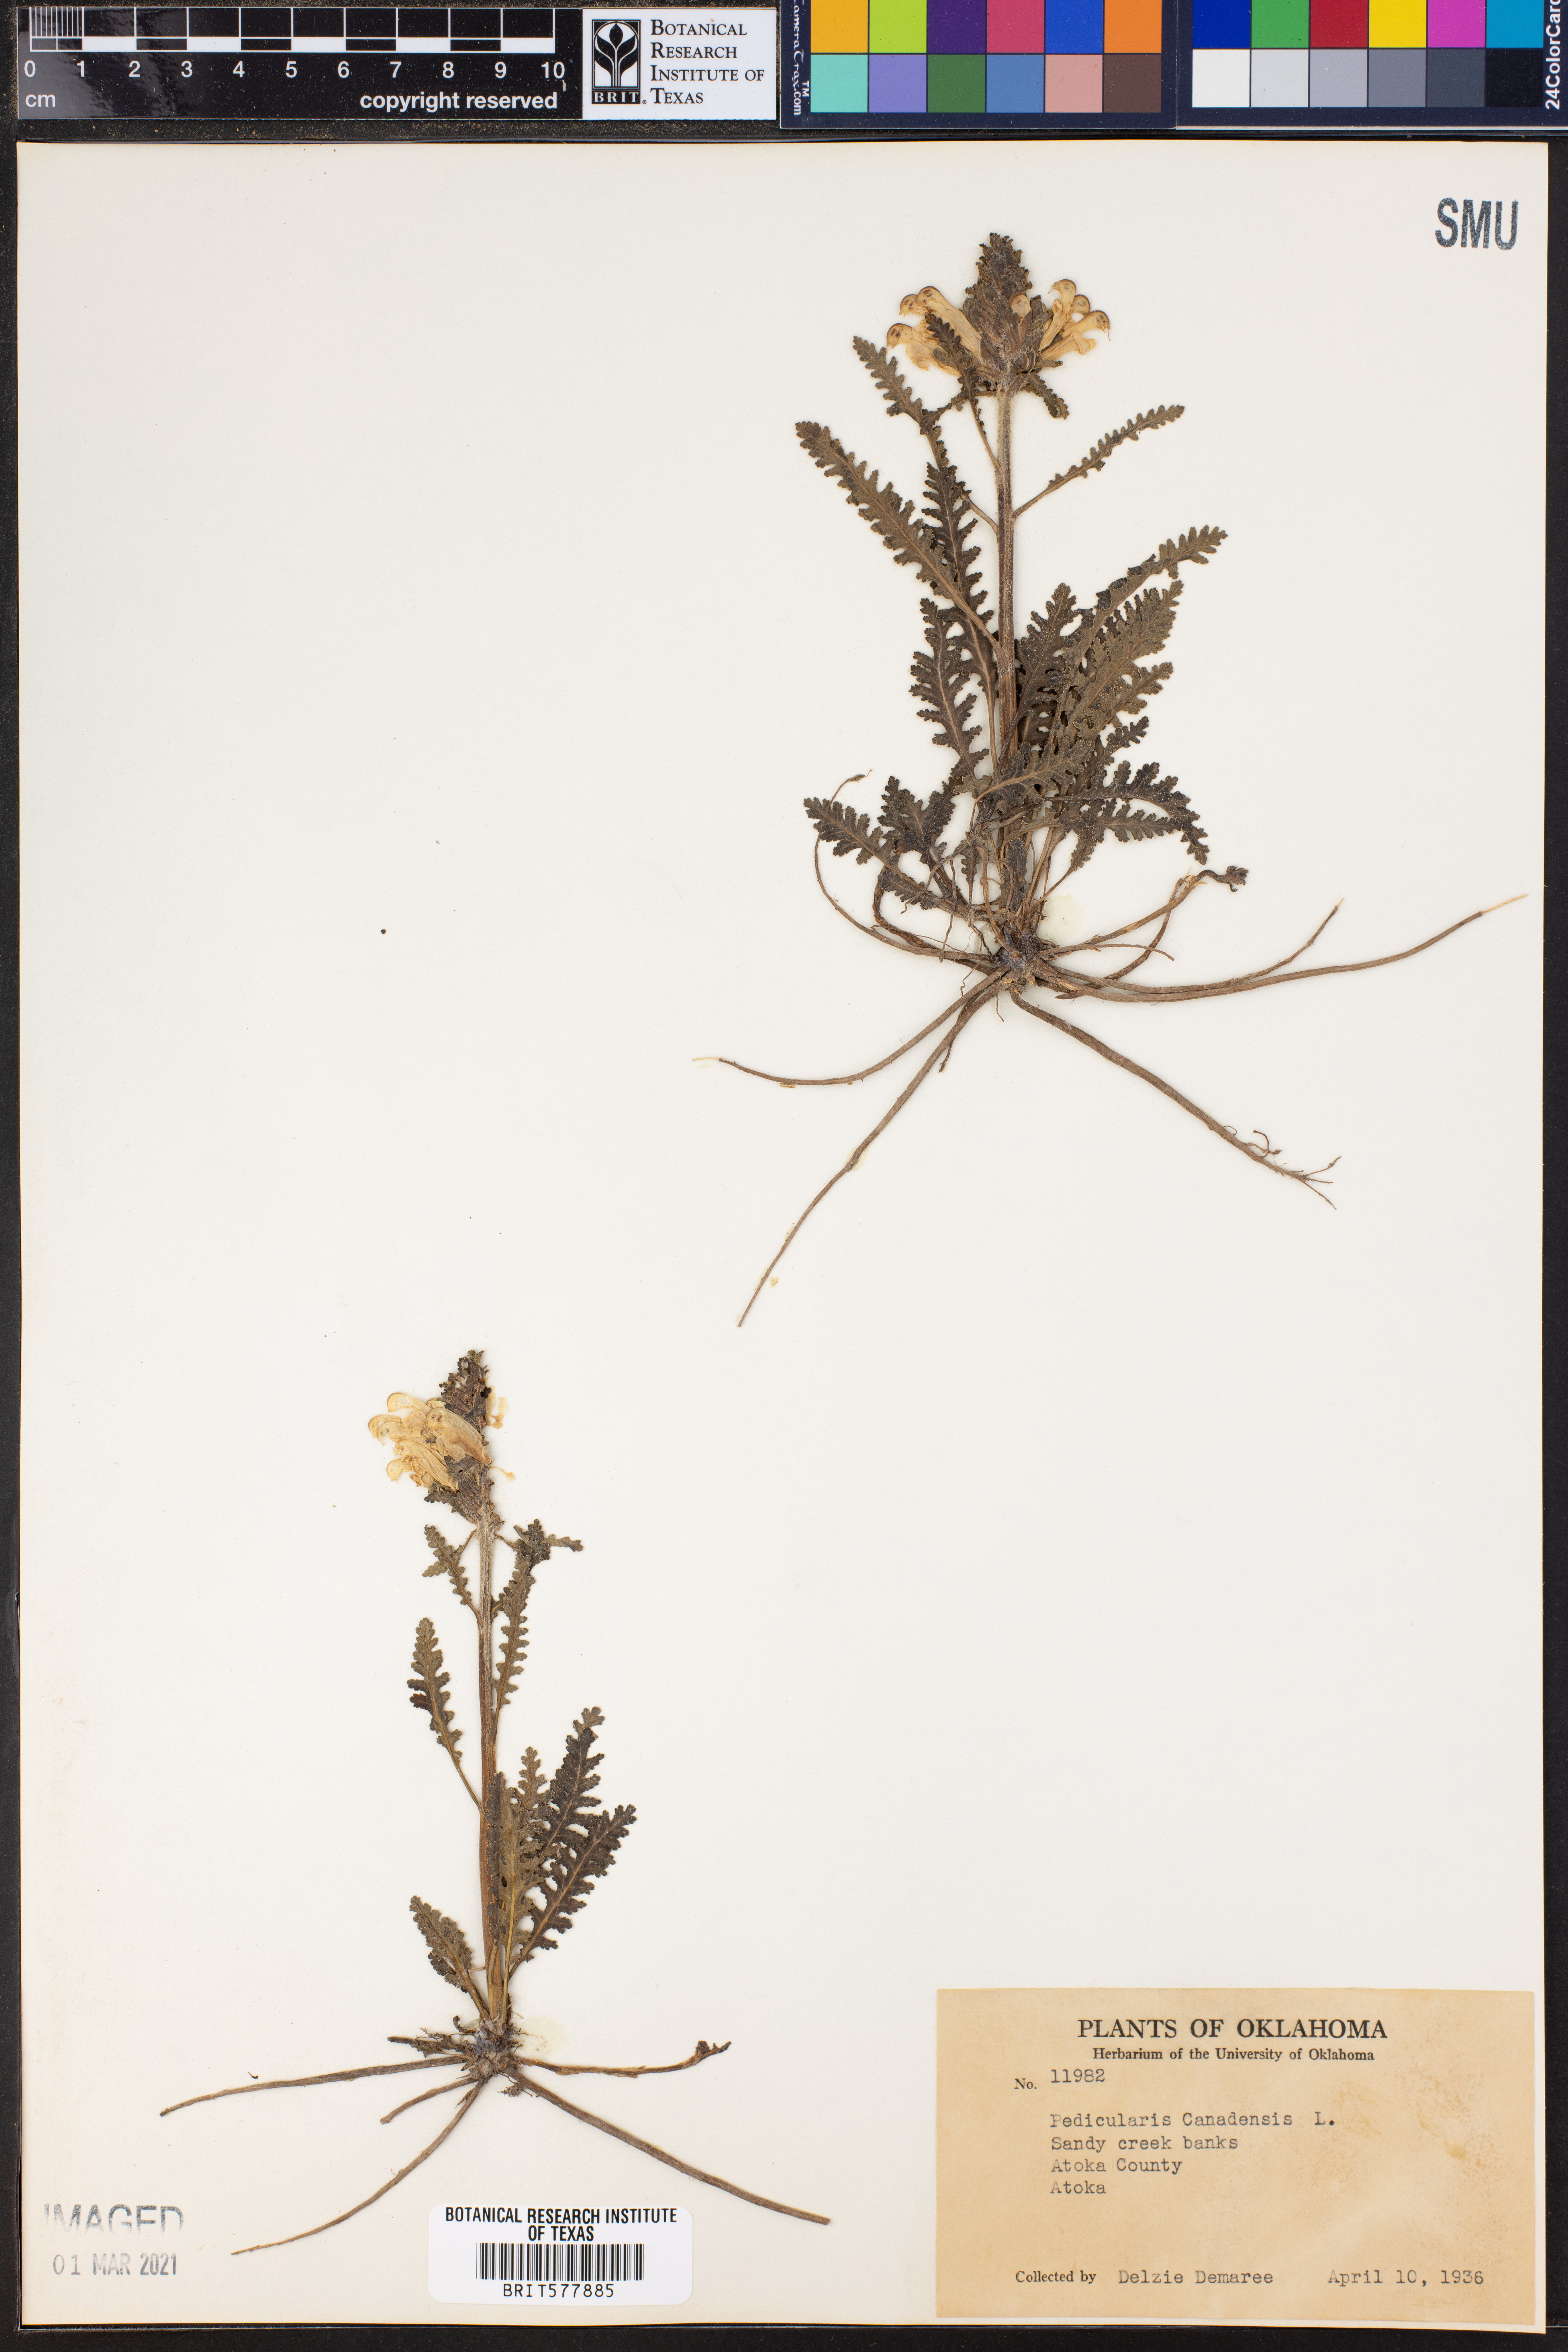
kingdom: Plantae
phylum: Tracheophyta
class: Magnoliopsida
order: Lamiales
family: Orobanchaceae
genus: Pedicularis
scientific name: Pedicularis canadensis
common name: Early lousewort
